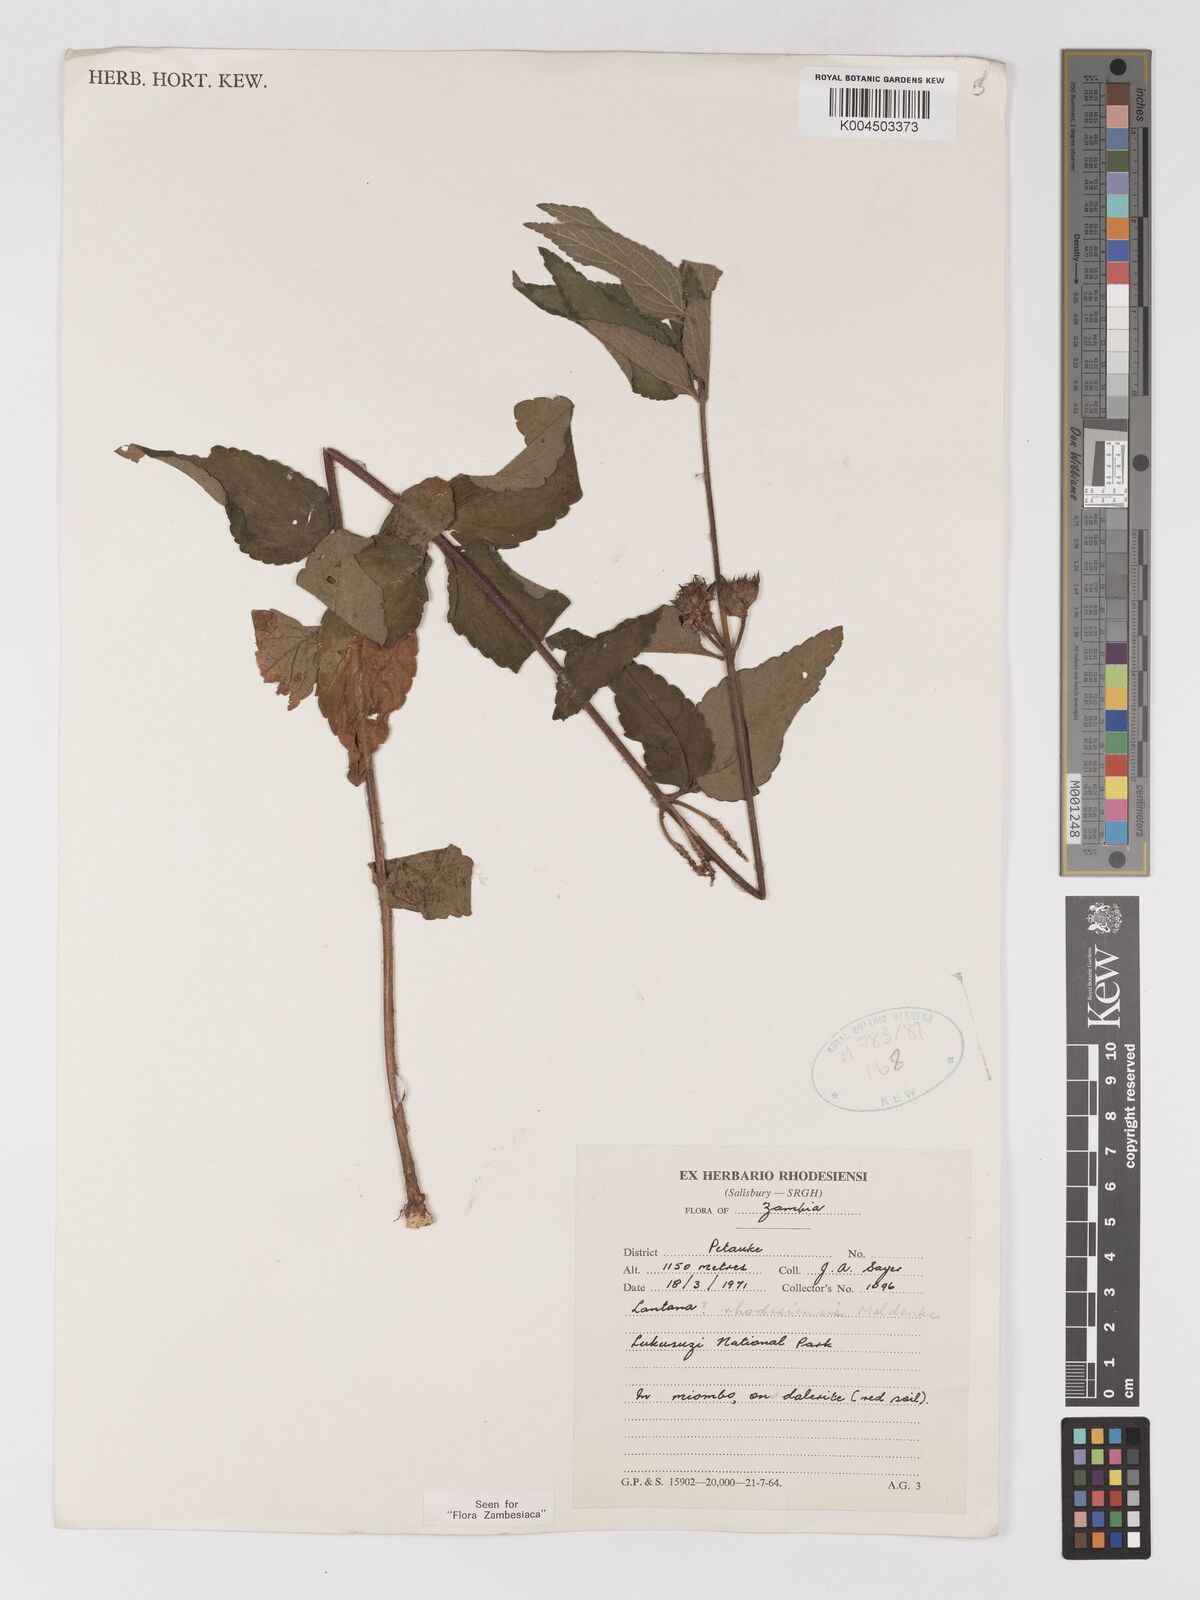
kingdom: Plantae
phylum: Tracheophyta
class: Magnoliopsida
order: Lamiales
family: Verbenaceae
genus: Lantana
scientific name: Lantana ukambensis
